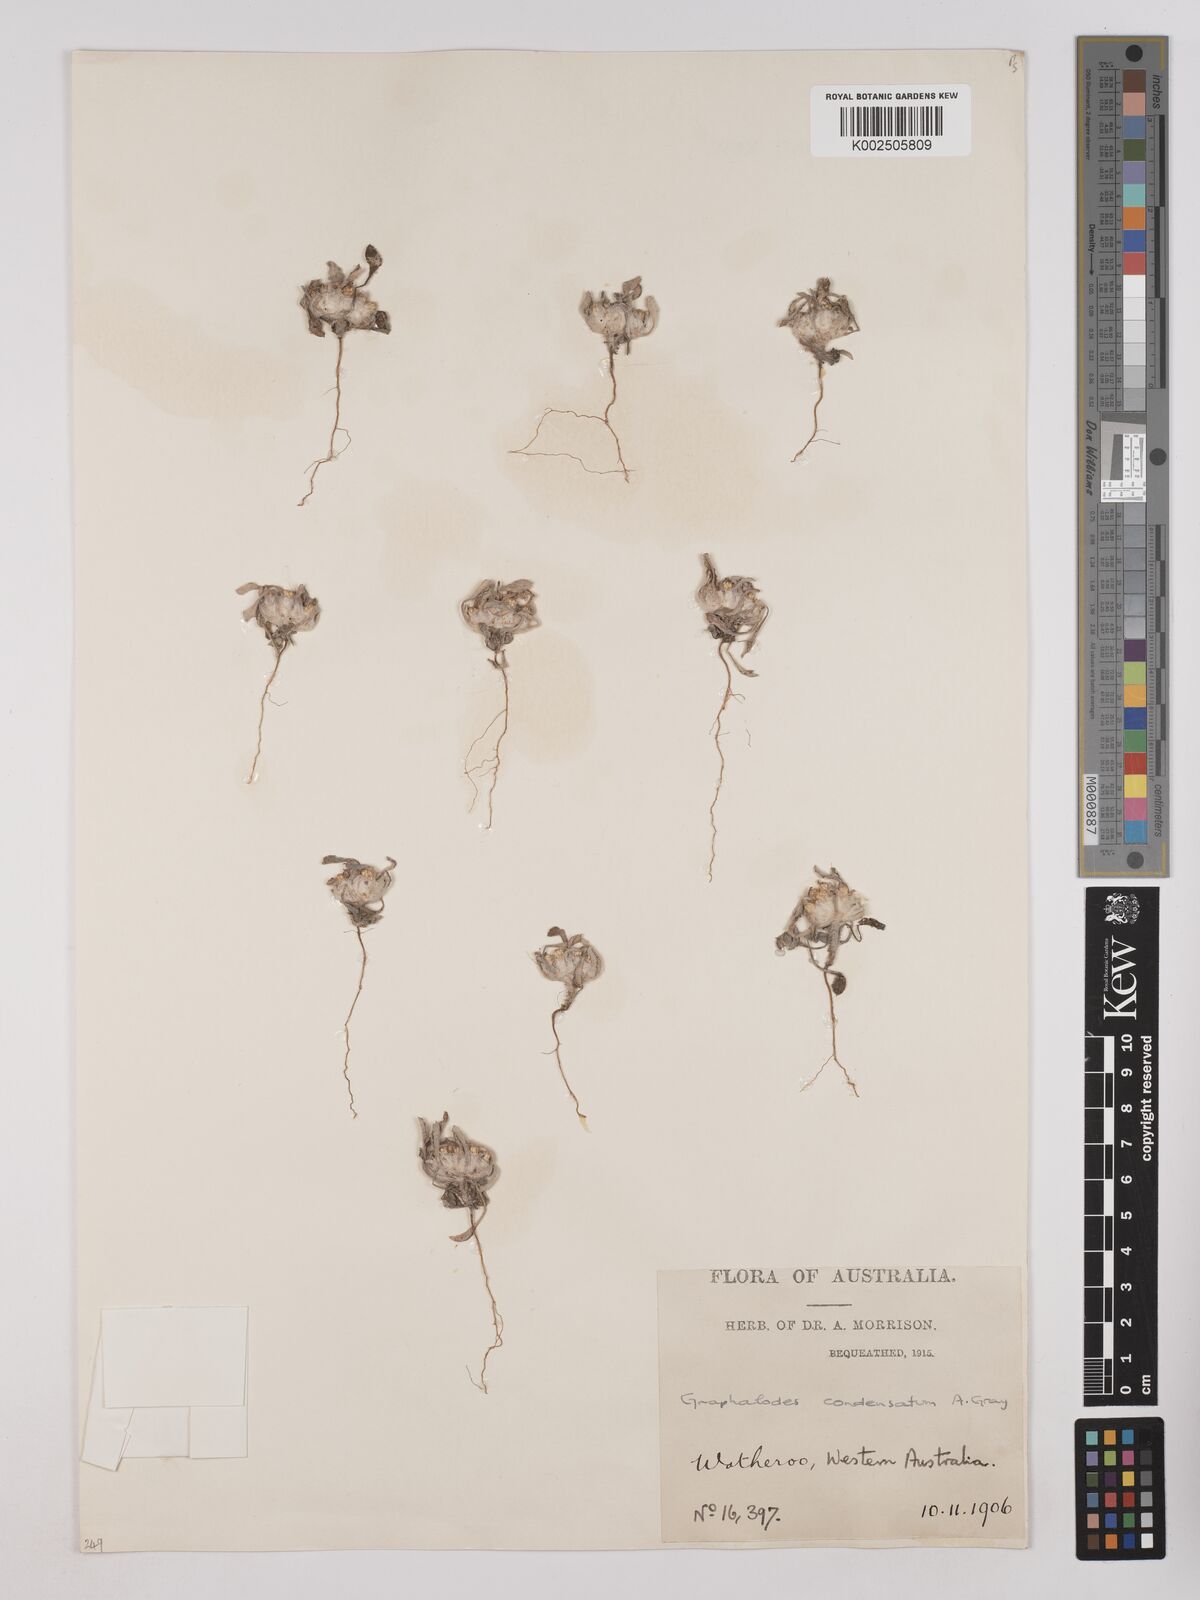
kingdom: Plantae
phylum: Tracheophyta
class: Magnoliopsida
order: Asterales
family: Asteraceae
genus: Actinobole
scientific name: Actinobole condensatum
